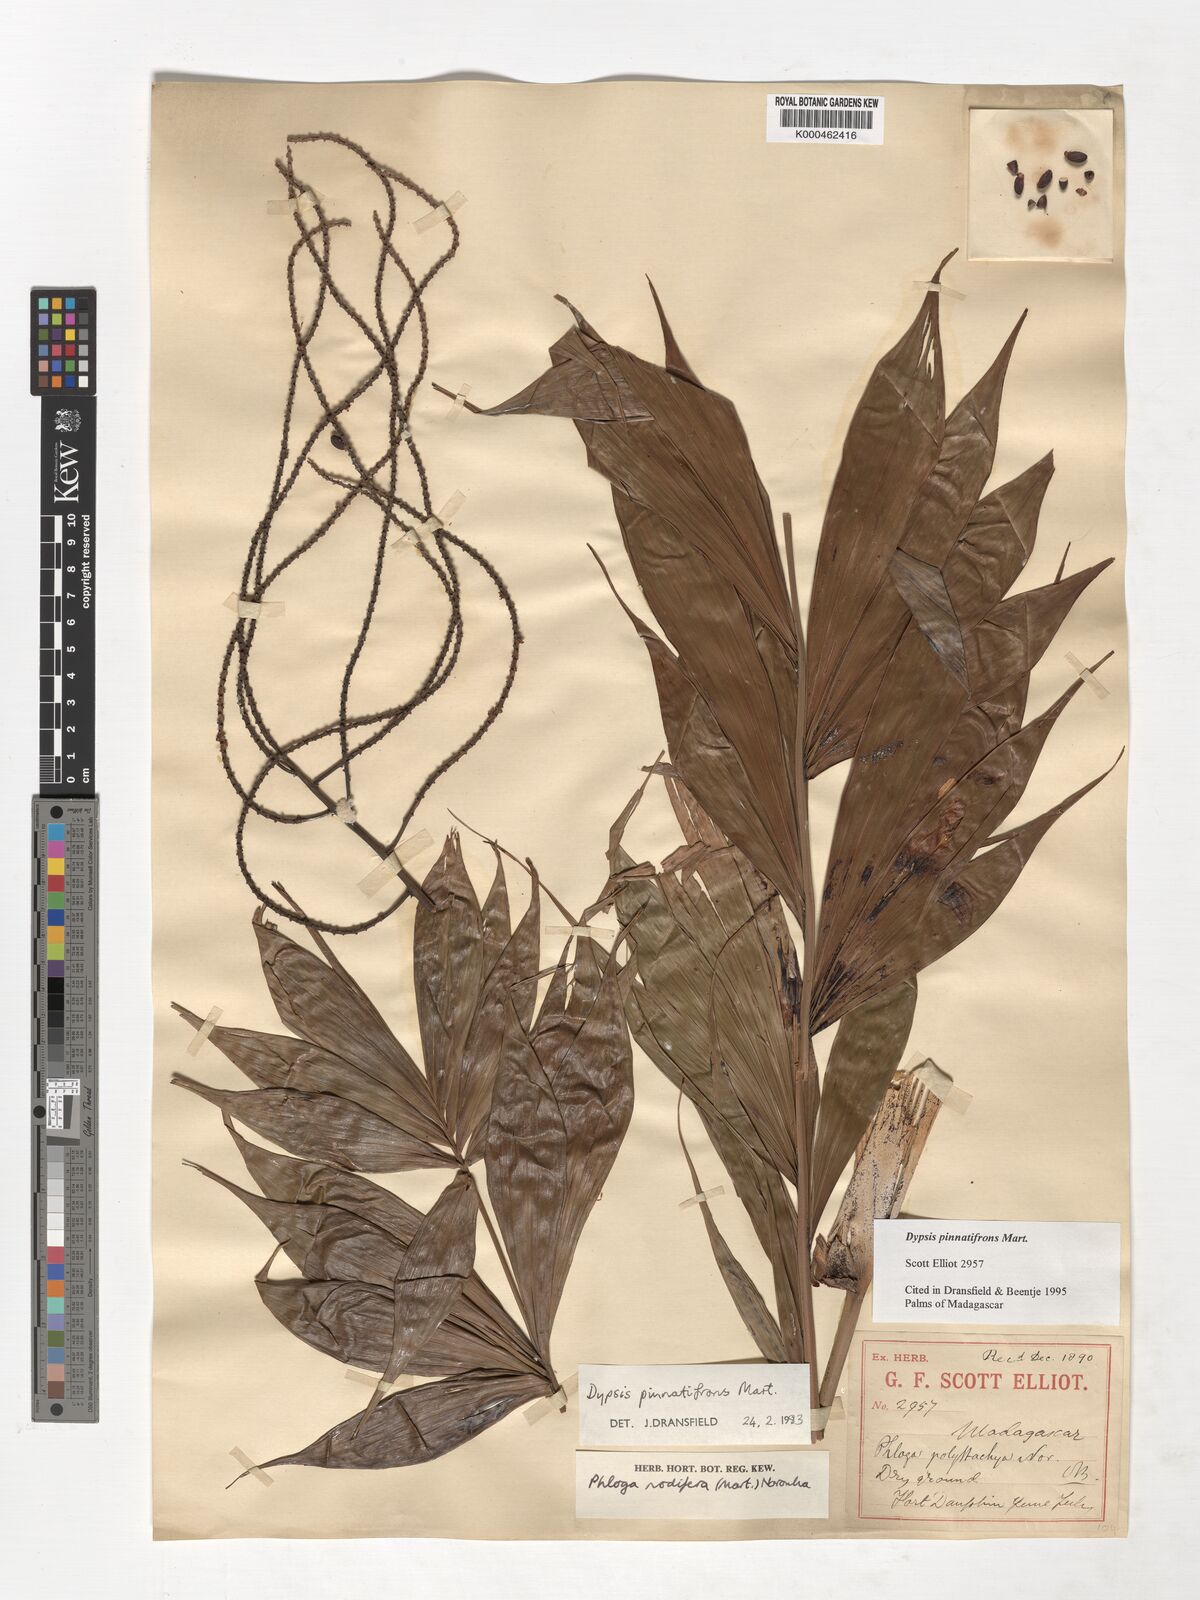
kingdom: Plantae
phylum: Tracheophyta
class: Liliopsida
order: Arecales
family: Arecaceae
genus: Dypsis
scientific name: Dypsis pinnatifrons
